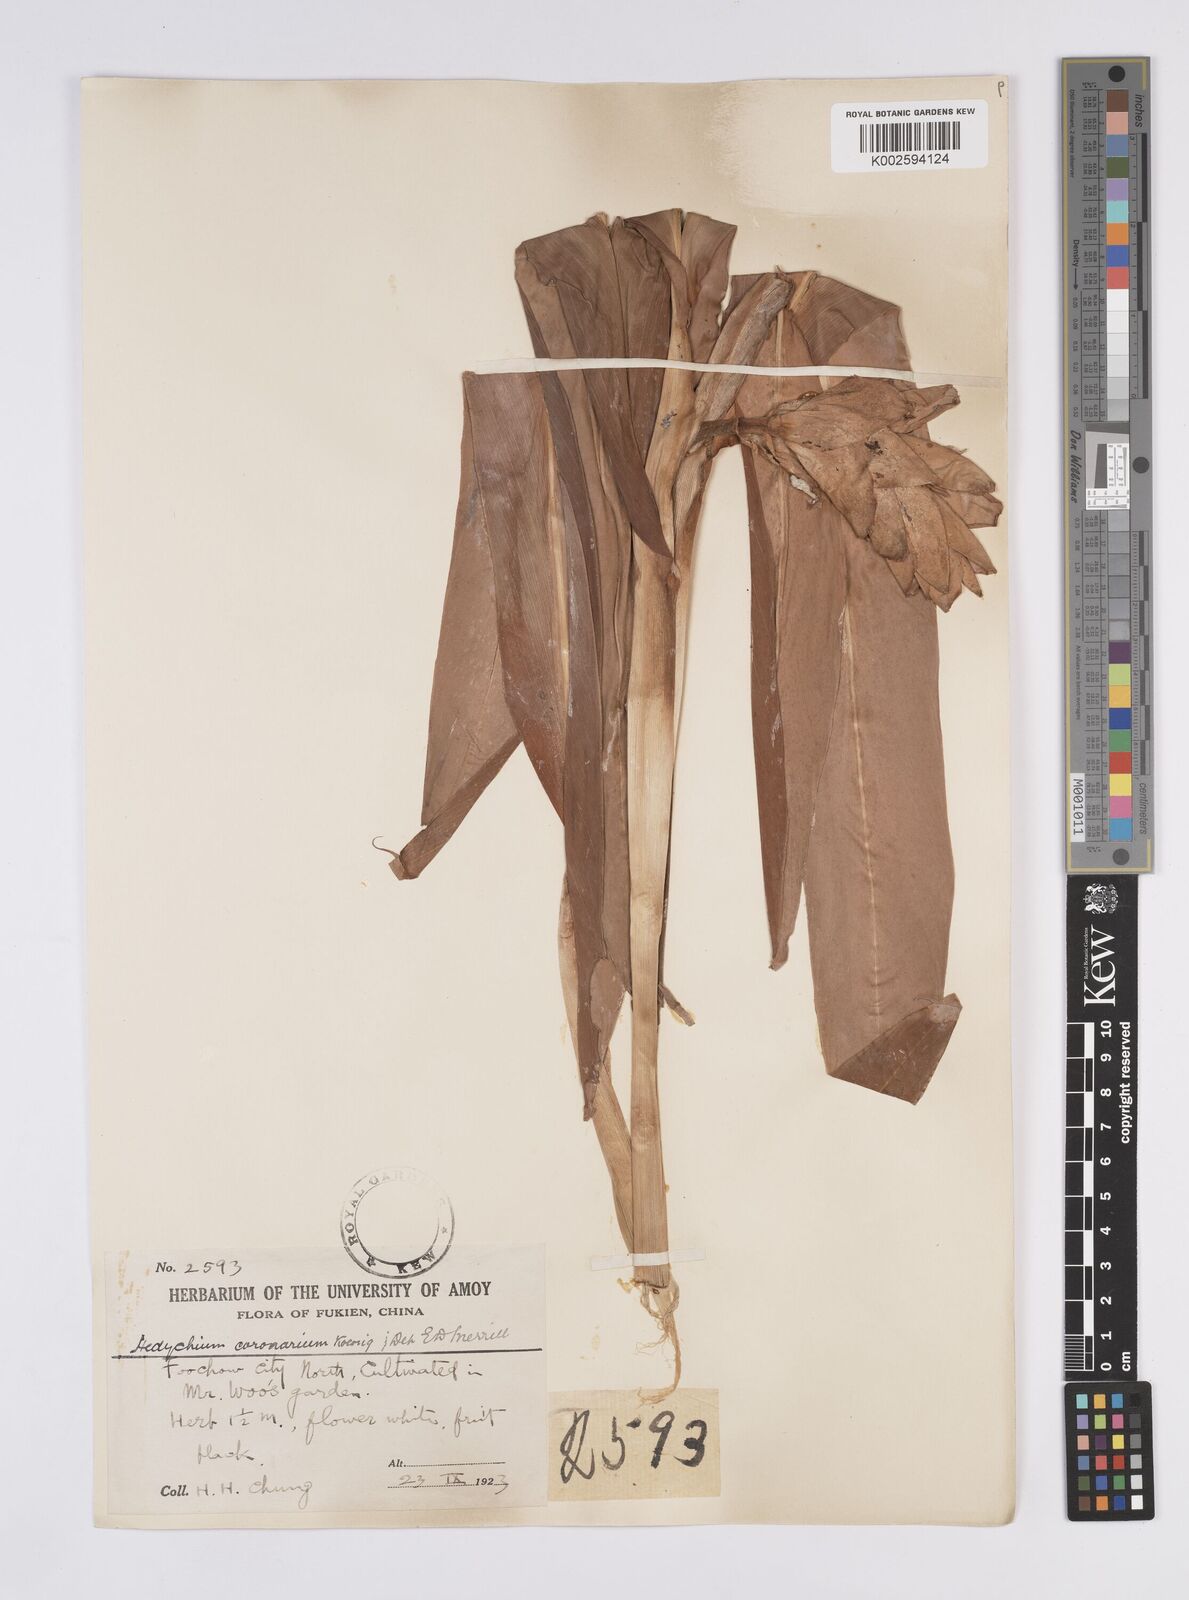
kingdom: Plantae
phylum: Tracheophyta
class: Liliopsida
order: Zingiberales
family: Zingiberaceae
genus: Hedychium
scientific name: Hedychium coronarium
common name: White garland-lily
